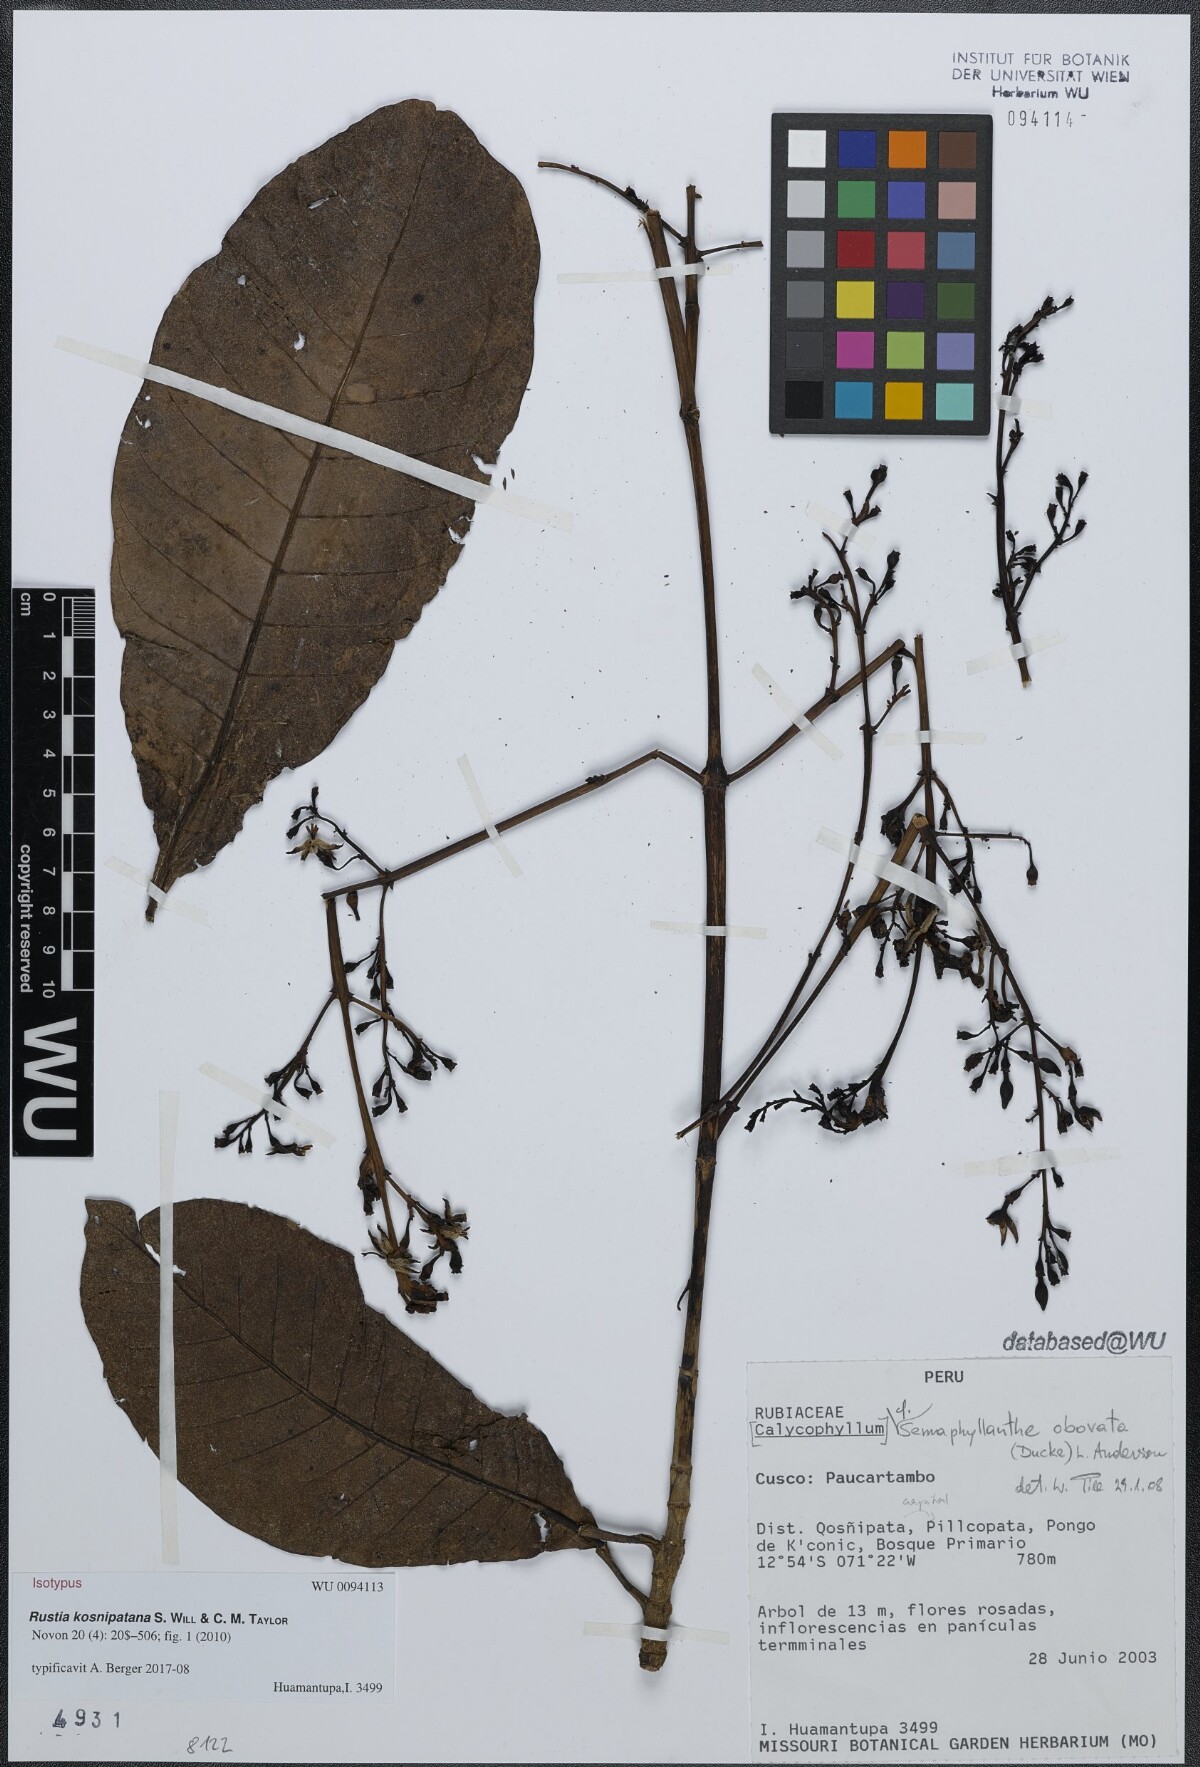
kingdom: Plantae
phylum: Tracheophyta
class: Magnoliopsida
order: Gentianales
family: Rubiaceae
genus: Rustia
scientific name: Rustia kosnipatana
